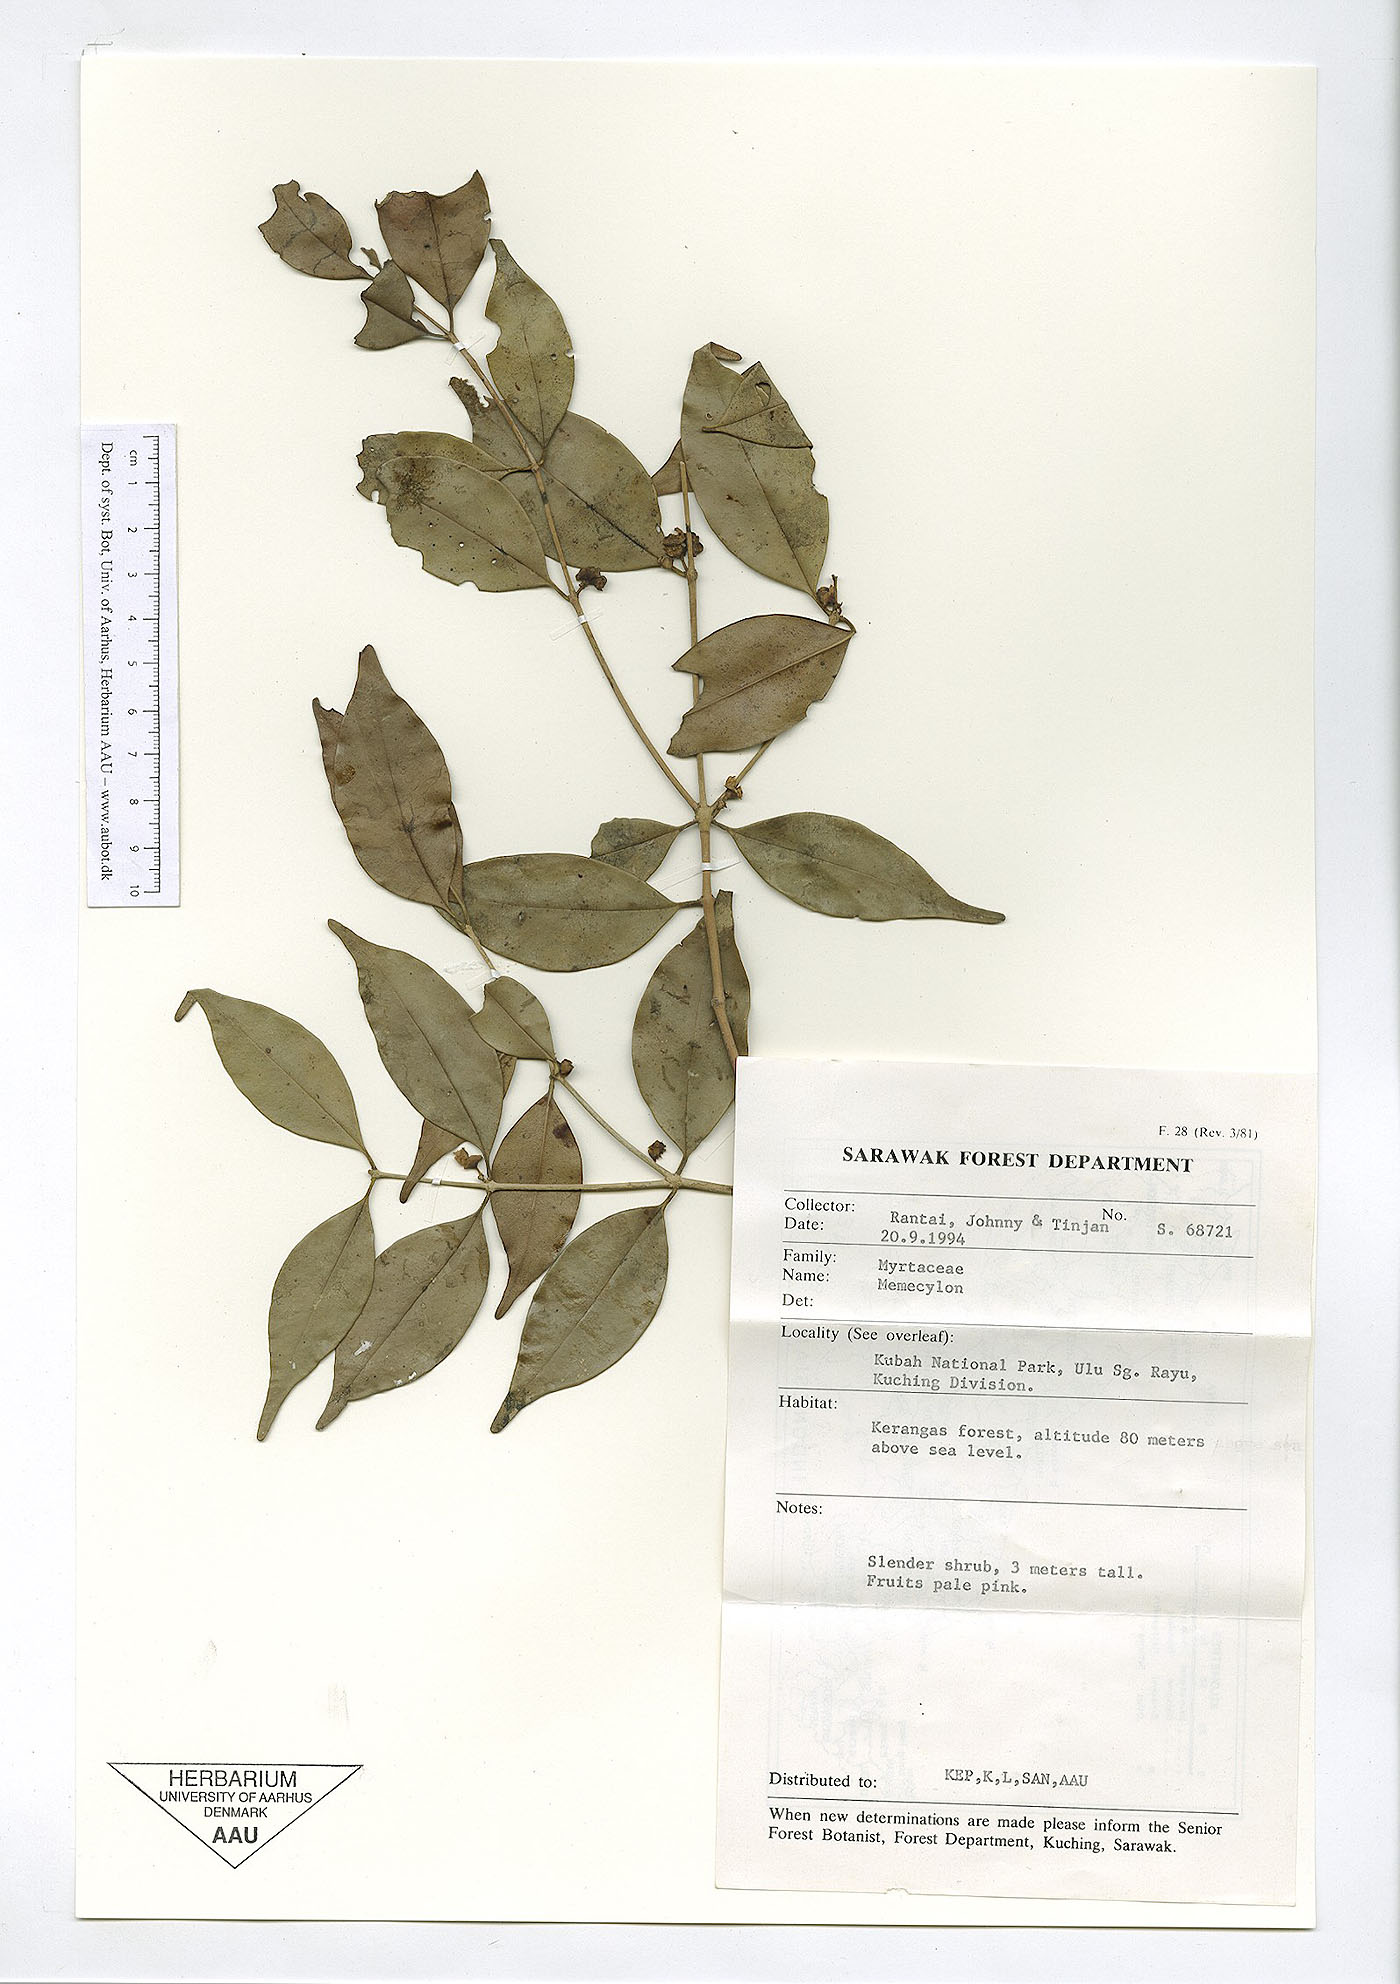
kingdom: Plantae
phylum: Tracheophyta
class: Magnoliopsida
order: Myrtales
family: Melastomataceae
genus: Memecylon
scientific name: Memecylon
